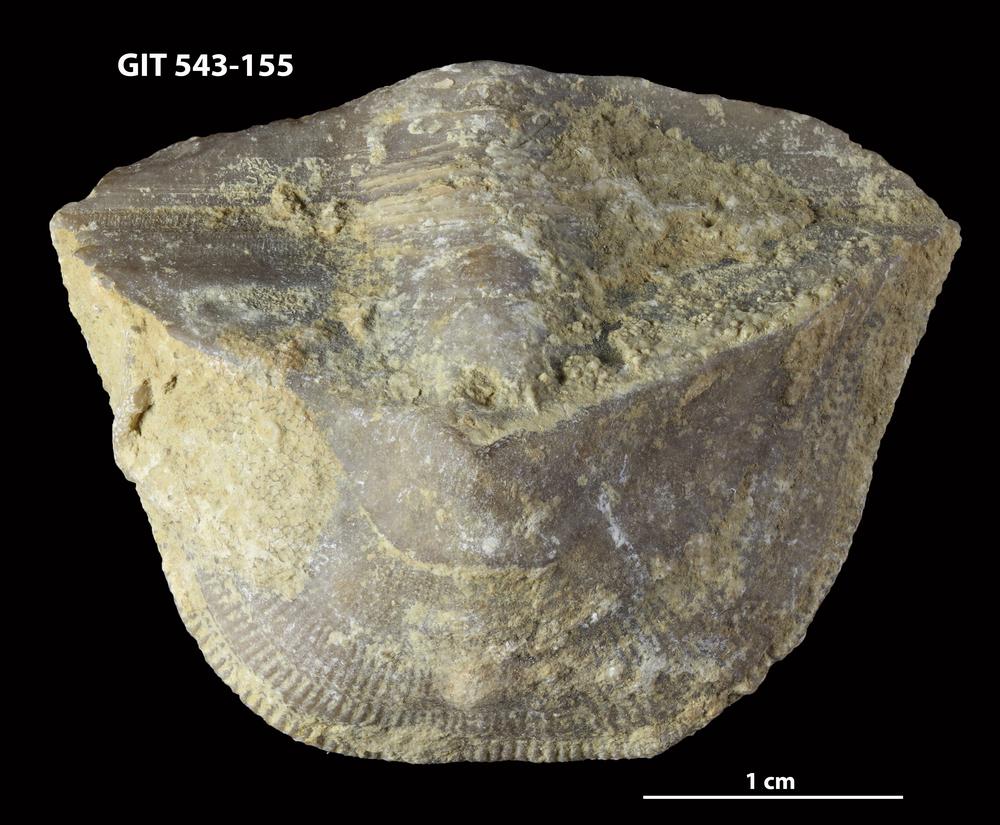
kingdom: Animalia
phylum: Brachiopoda
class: Rhynchonellata
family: Clitambonitidae
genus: Clinambon
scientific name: Clinambon anomalus
